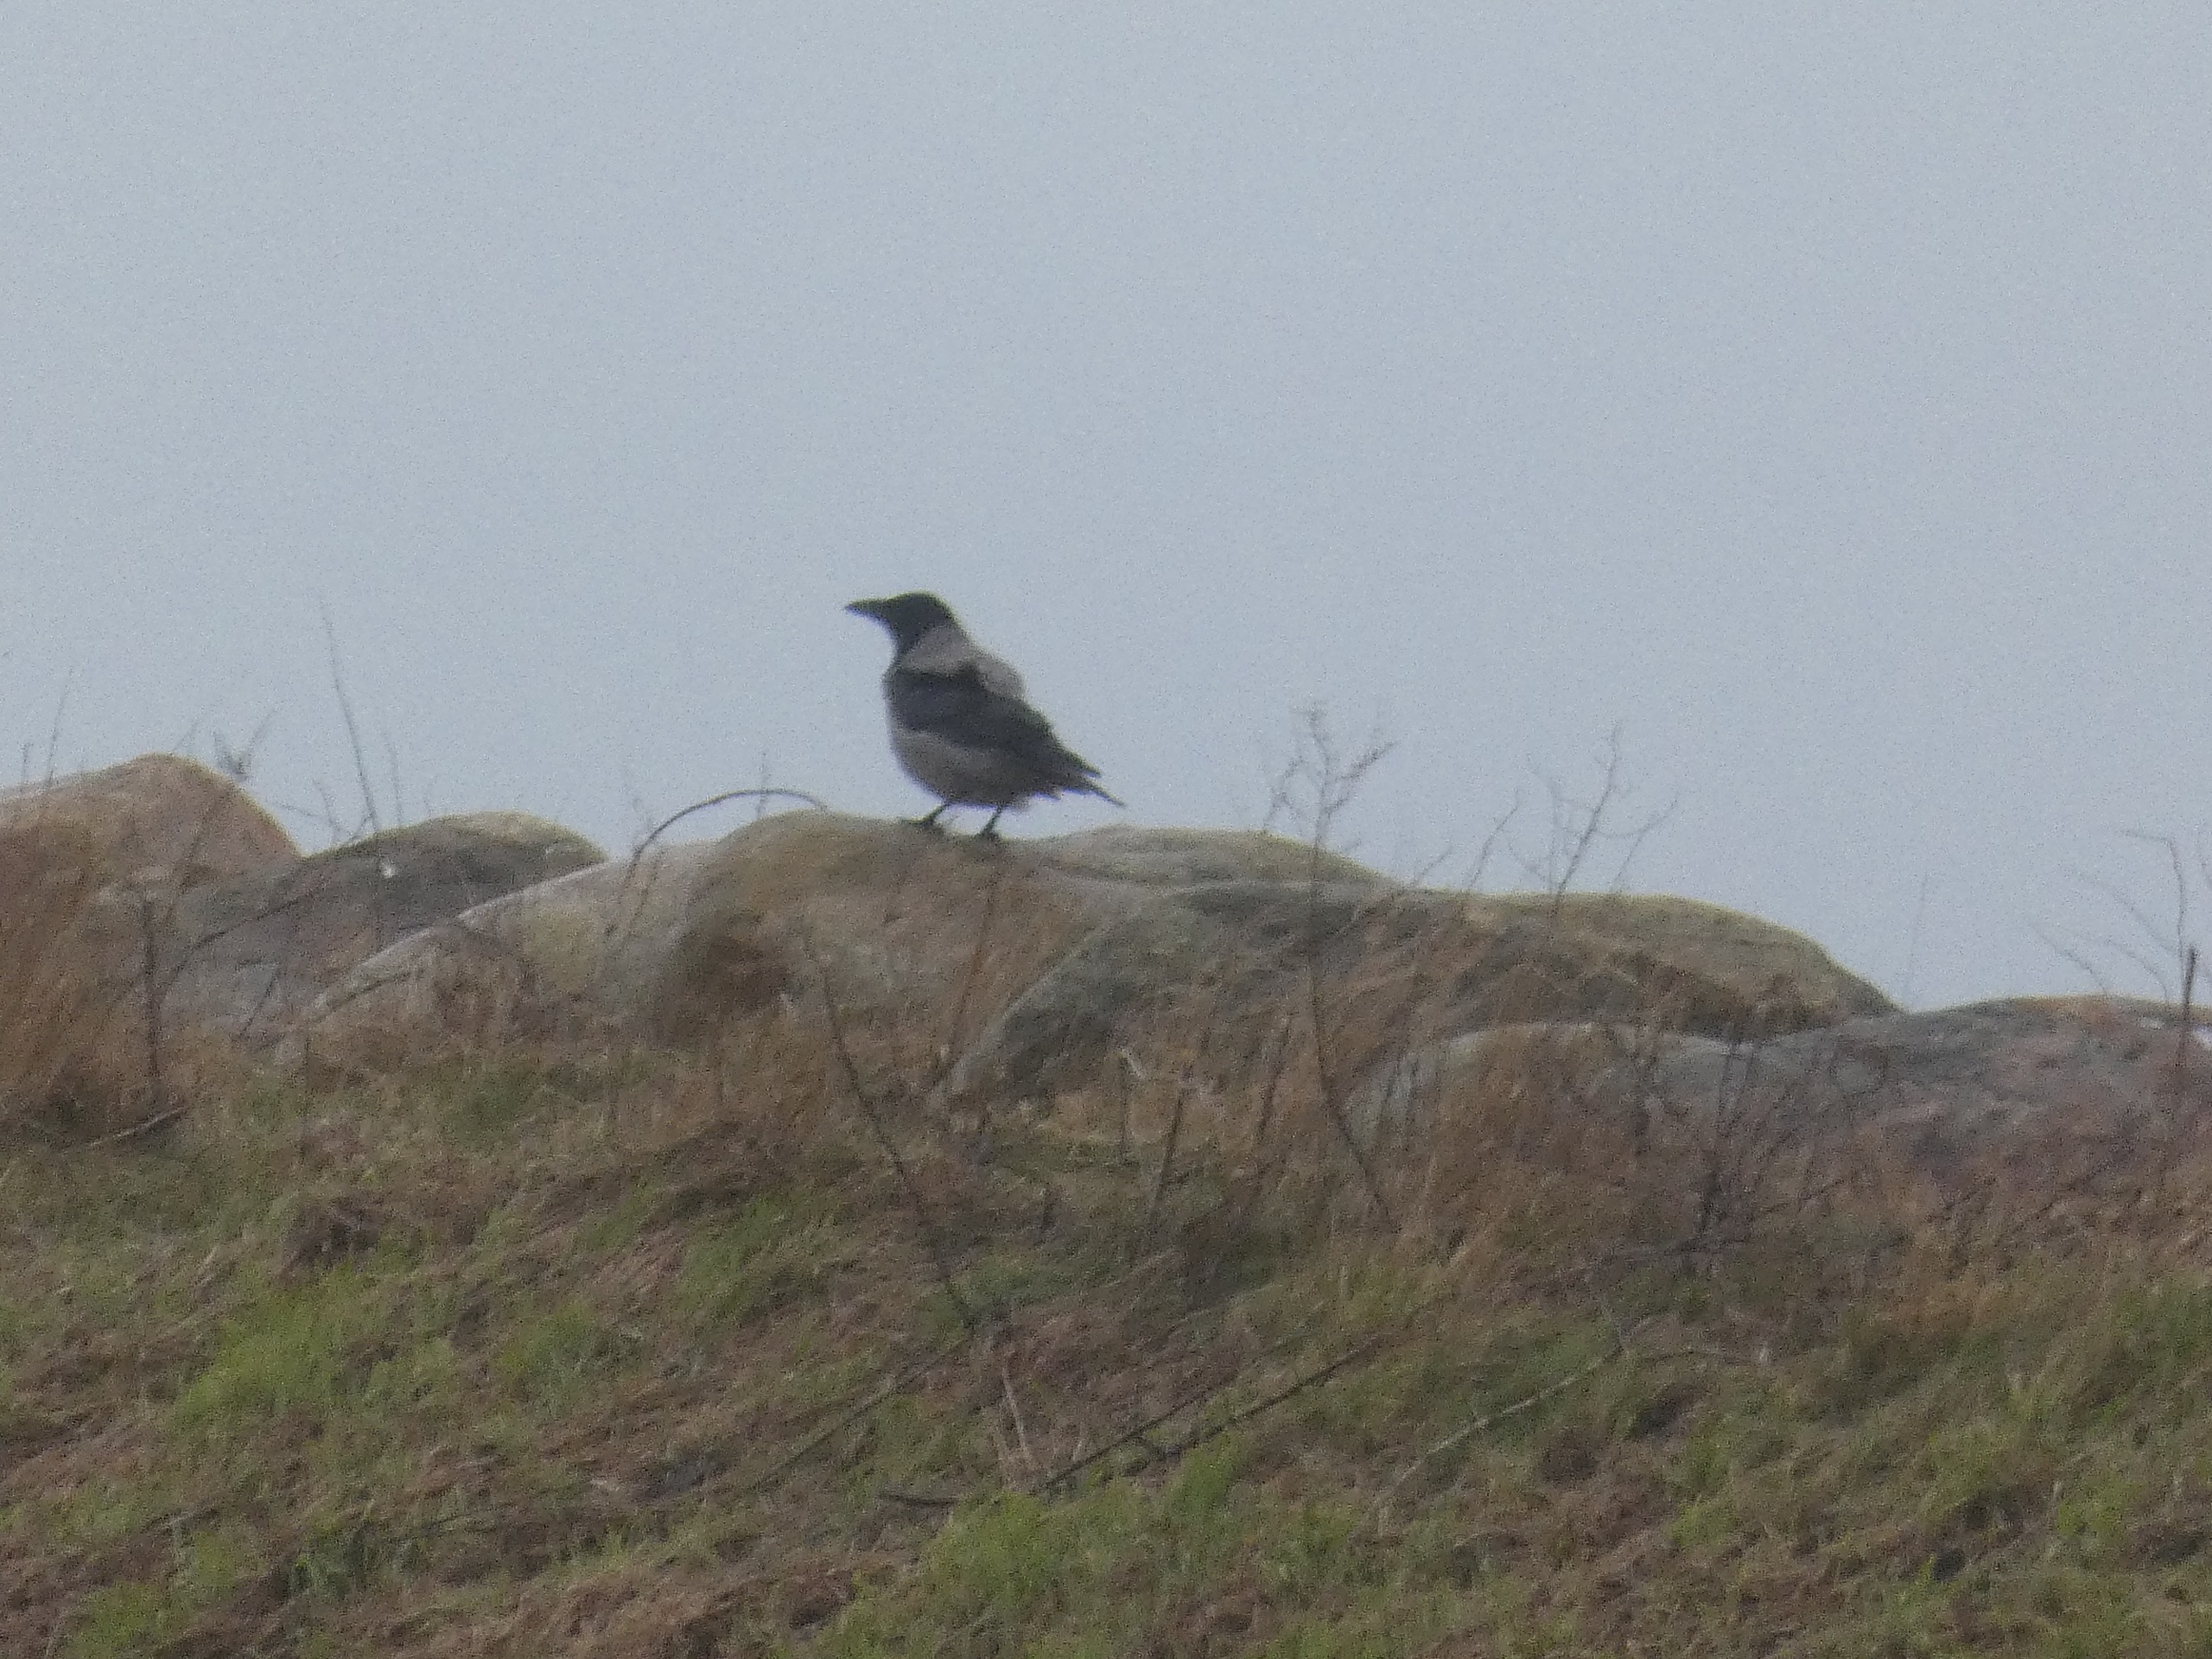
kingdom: Animalia
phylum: Chordata
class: Aves
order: Passeriformes
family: Corvidae
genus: Corvus
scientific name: Corvus cornix
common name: Gråkrage
